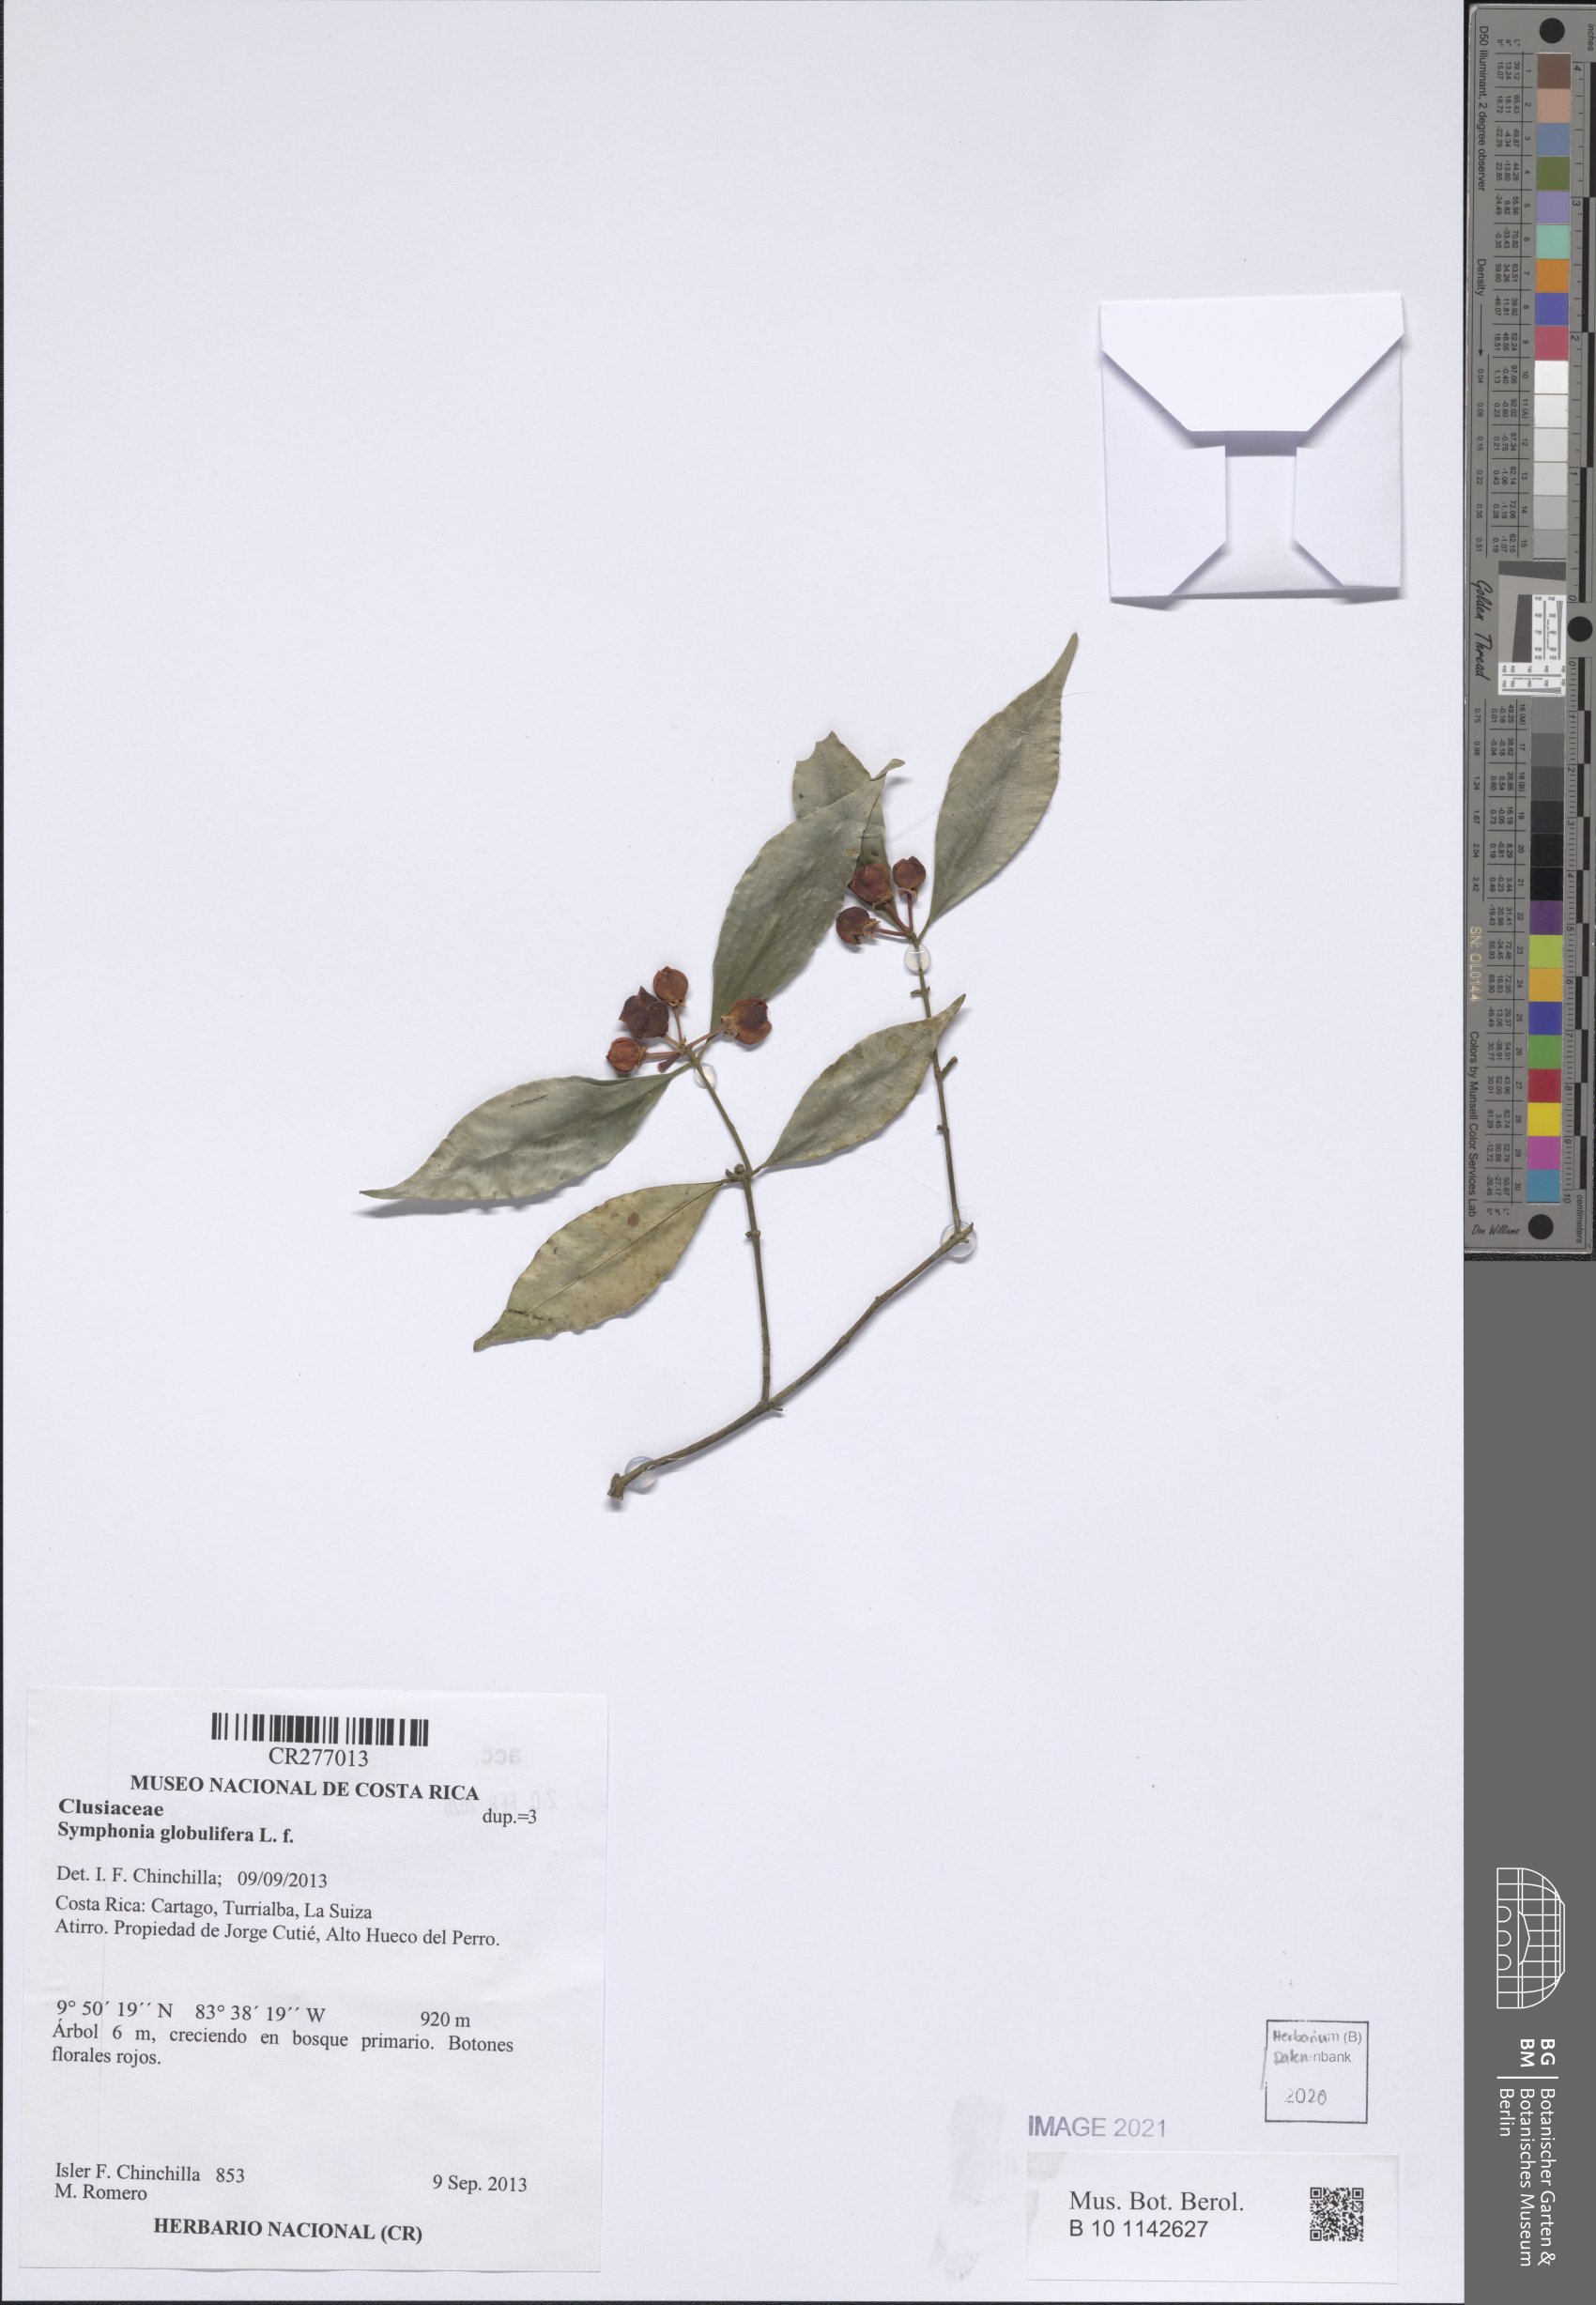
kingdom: Plantae
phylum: Tracheophyta
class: Magnoliopsida
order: Malpighiales
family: Clusiaceae
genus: Symphonia
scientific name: Symphonia globulifera
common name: Boarwood
